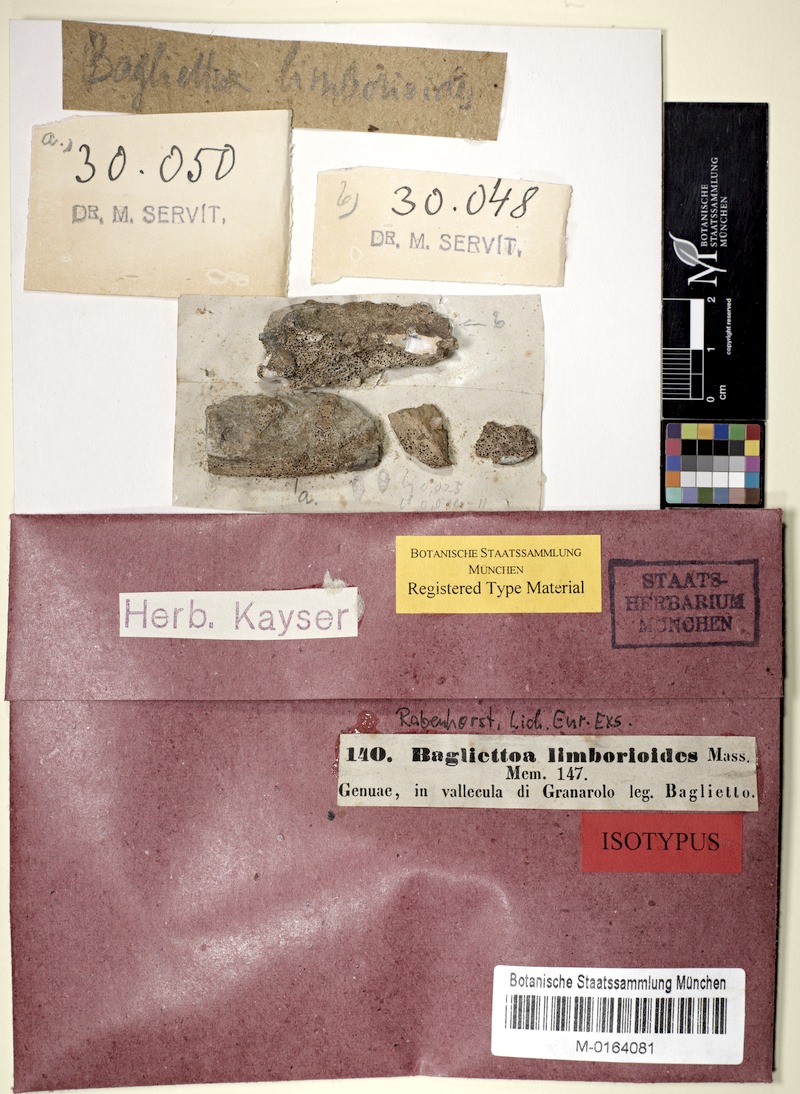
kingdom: Fungi
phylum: Ascomycota
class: Eurotiomycetes
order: Verrucariales
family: Verrucariaceae
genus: Bagliettoa
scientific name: Bagliettoa limborioides
